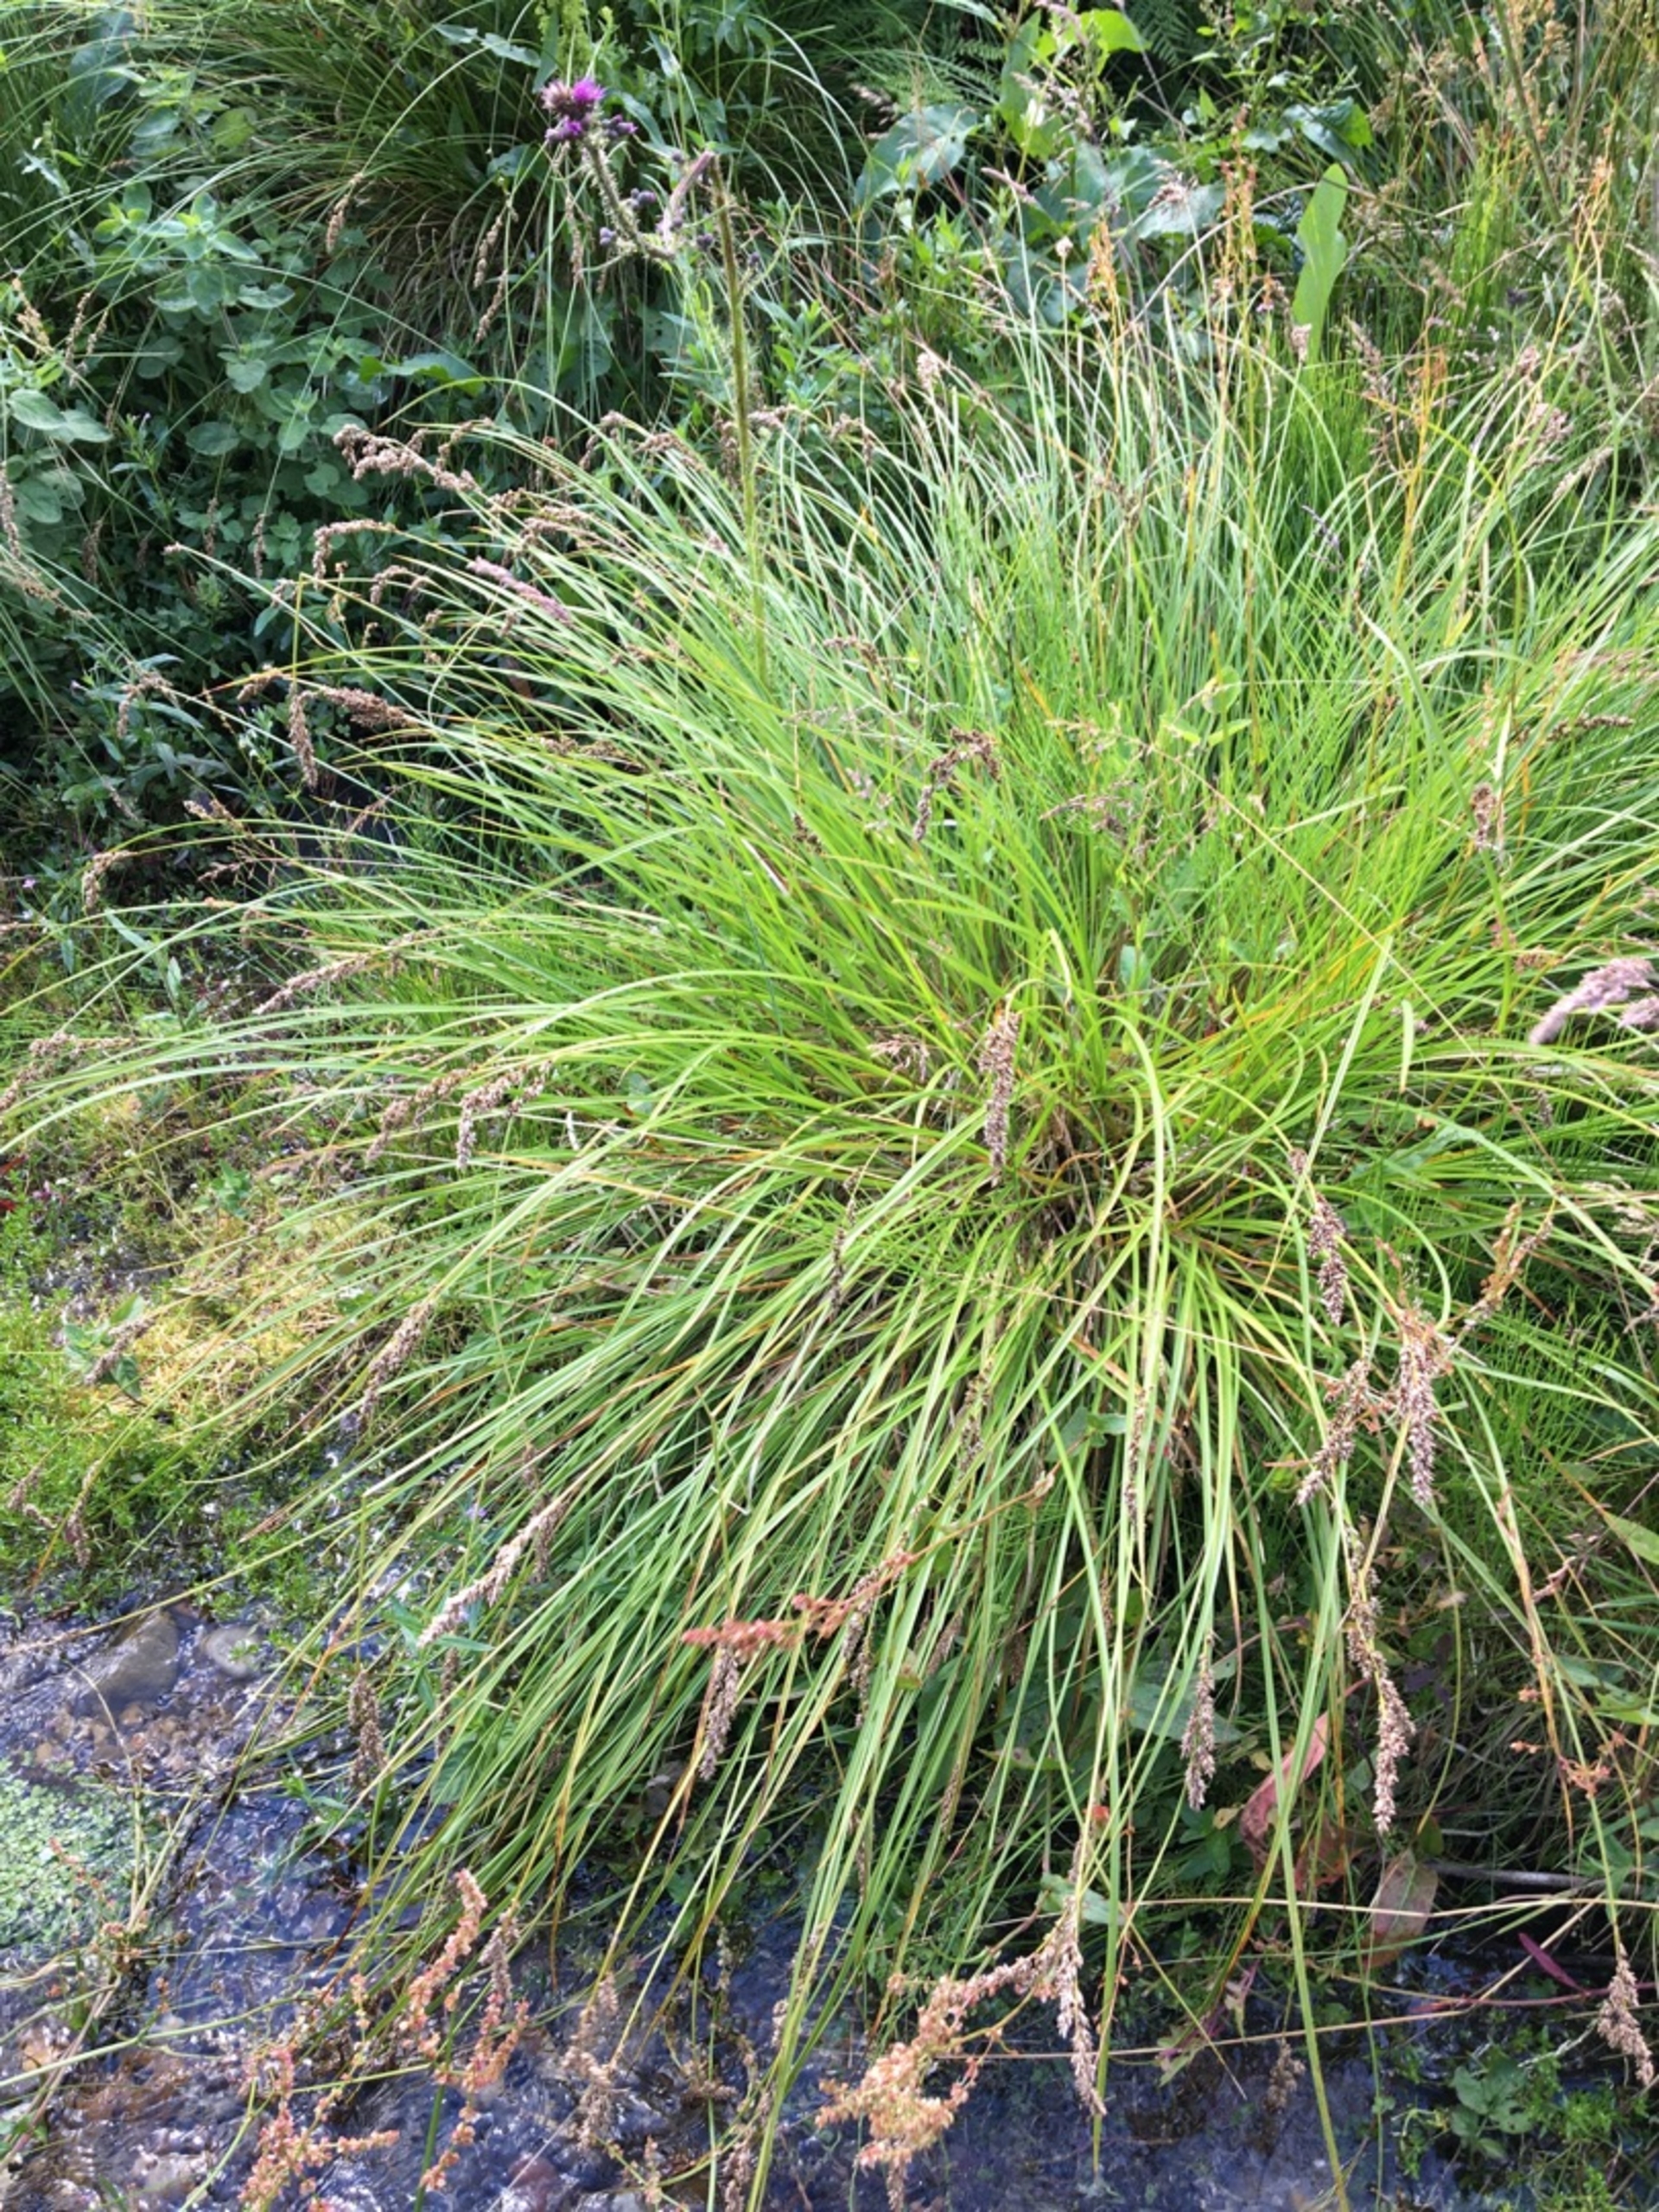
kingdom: Plantae
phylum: Tracheophyta
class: Liliopsida
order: Poales
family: Cyperaceae
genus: Carex
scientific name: Carex paniculata
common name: Top-star
